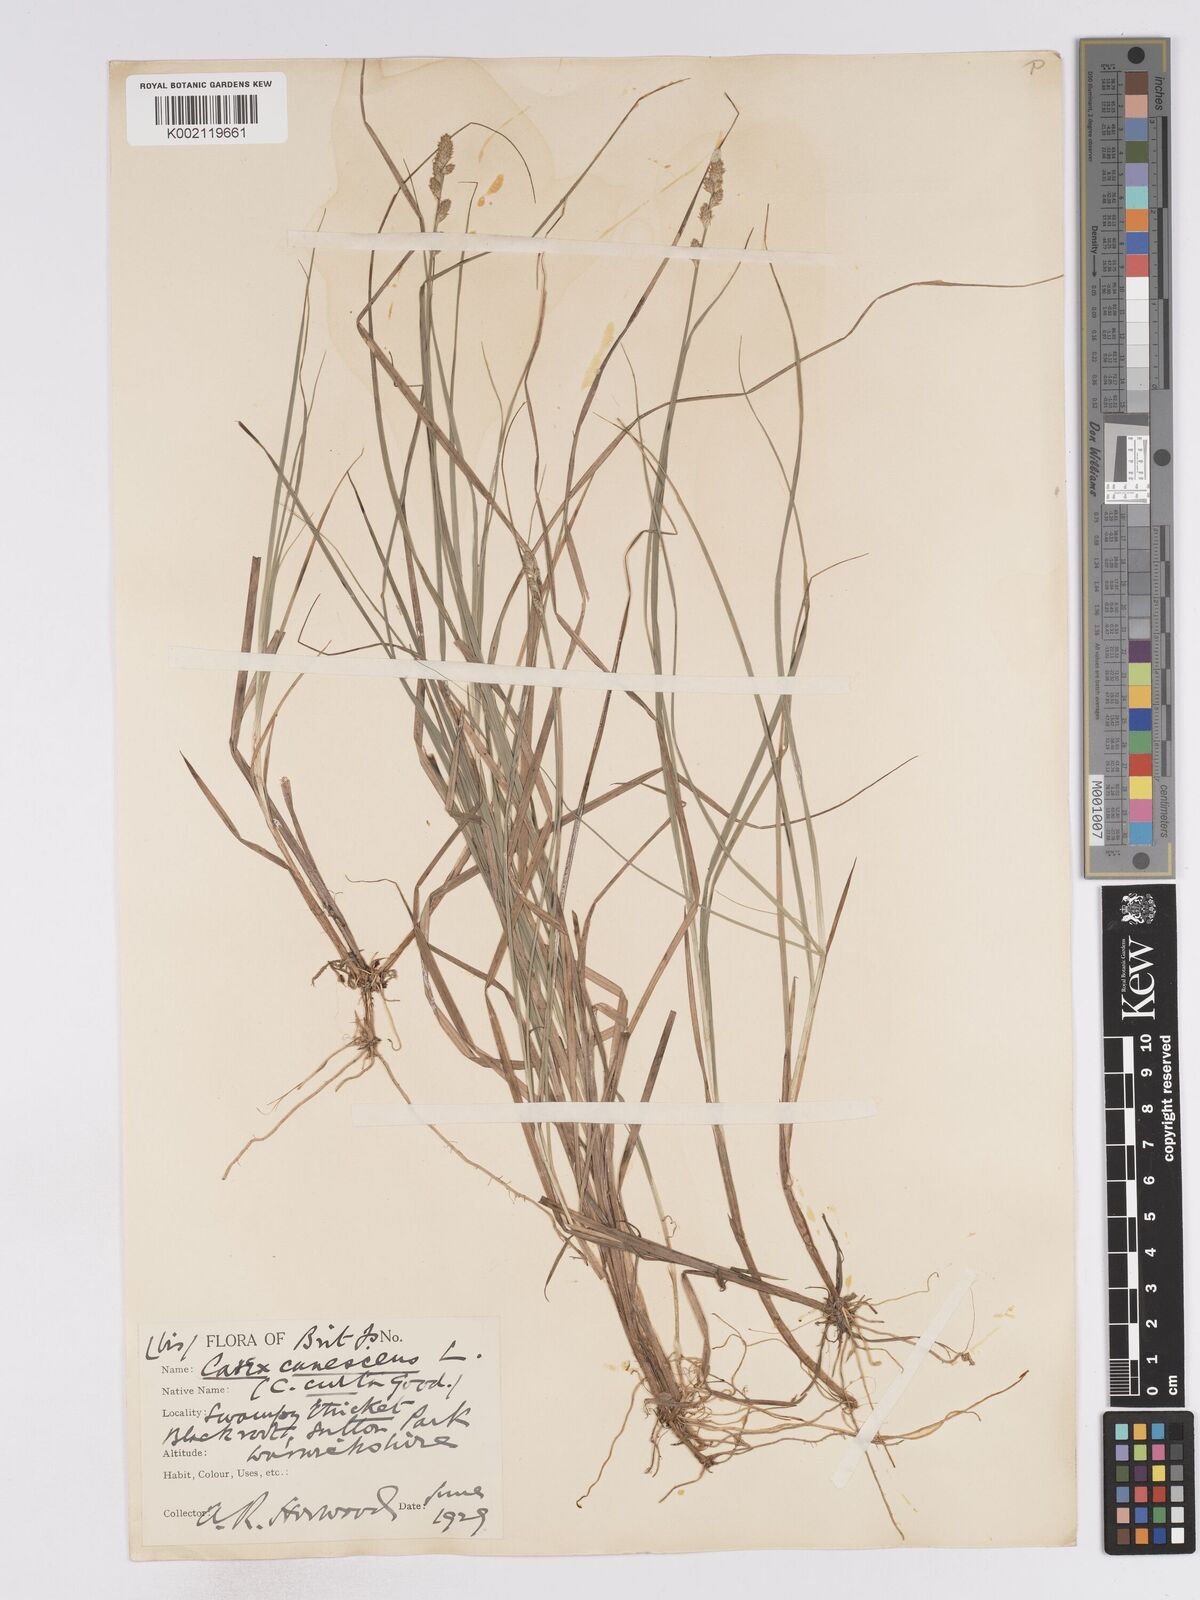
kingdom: Plantae
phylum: Tracheophyta
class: Liliopsida
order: Poales
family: Cyperaceae
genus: Carex
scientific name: Carex curta
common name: White sedge
